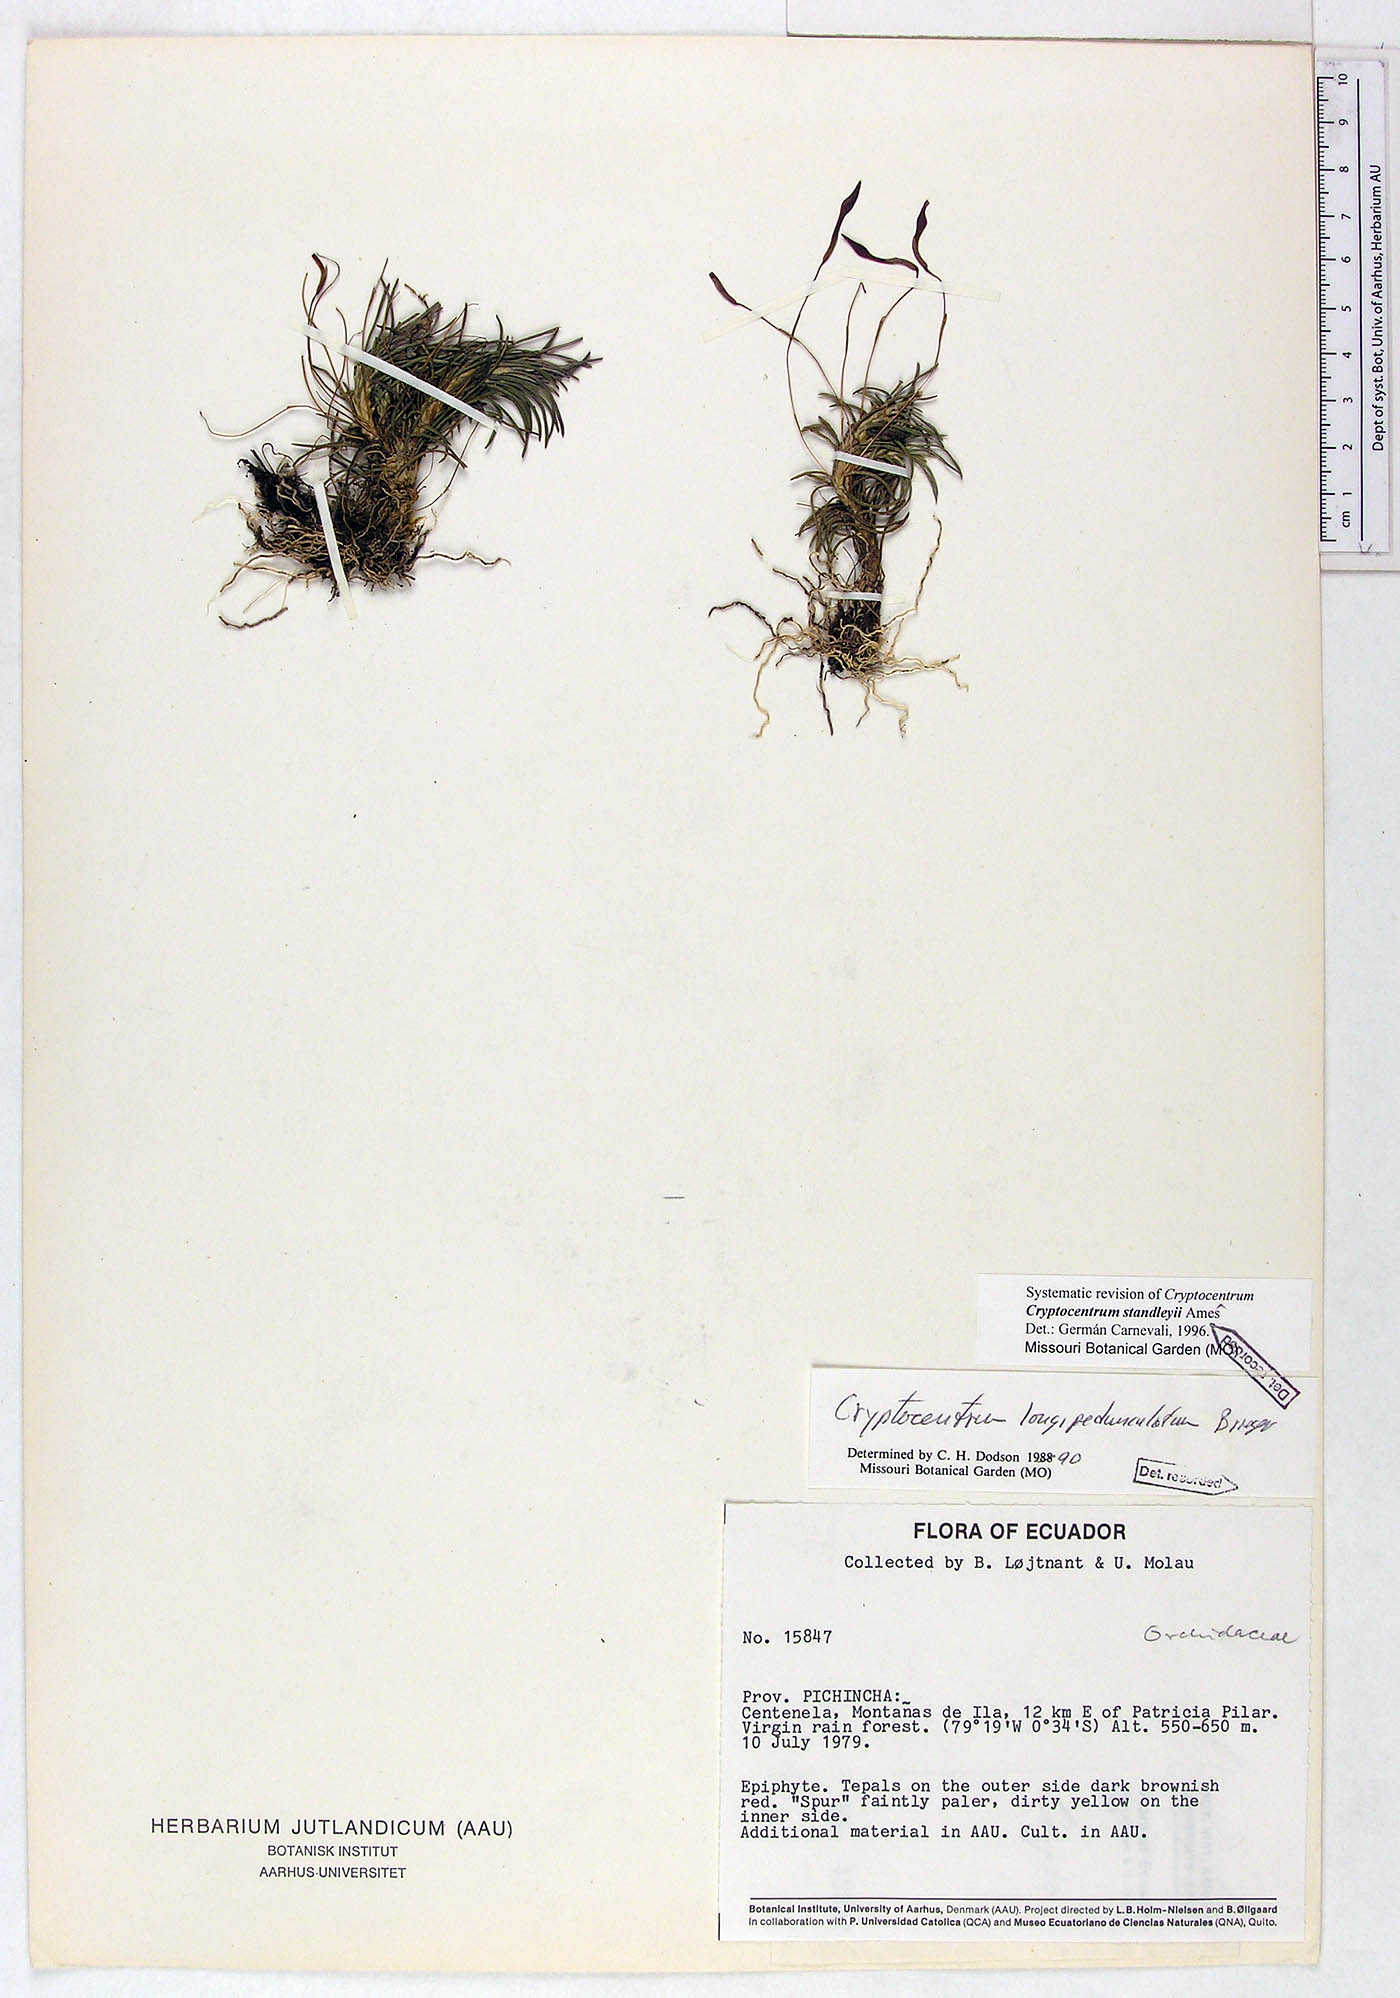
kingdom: Plantae
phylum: Tracheophyta
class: Liliopsida
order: Asparagales
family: Orchidaceae
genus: Maxillaria
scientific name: Maxillaria standleyi
